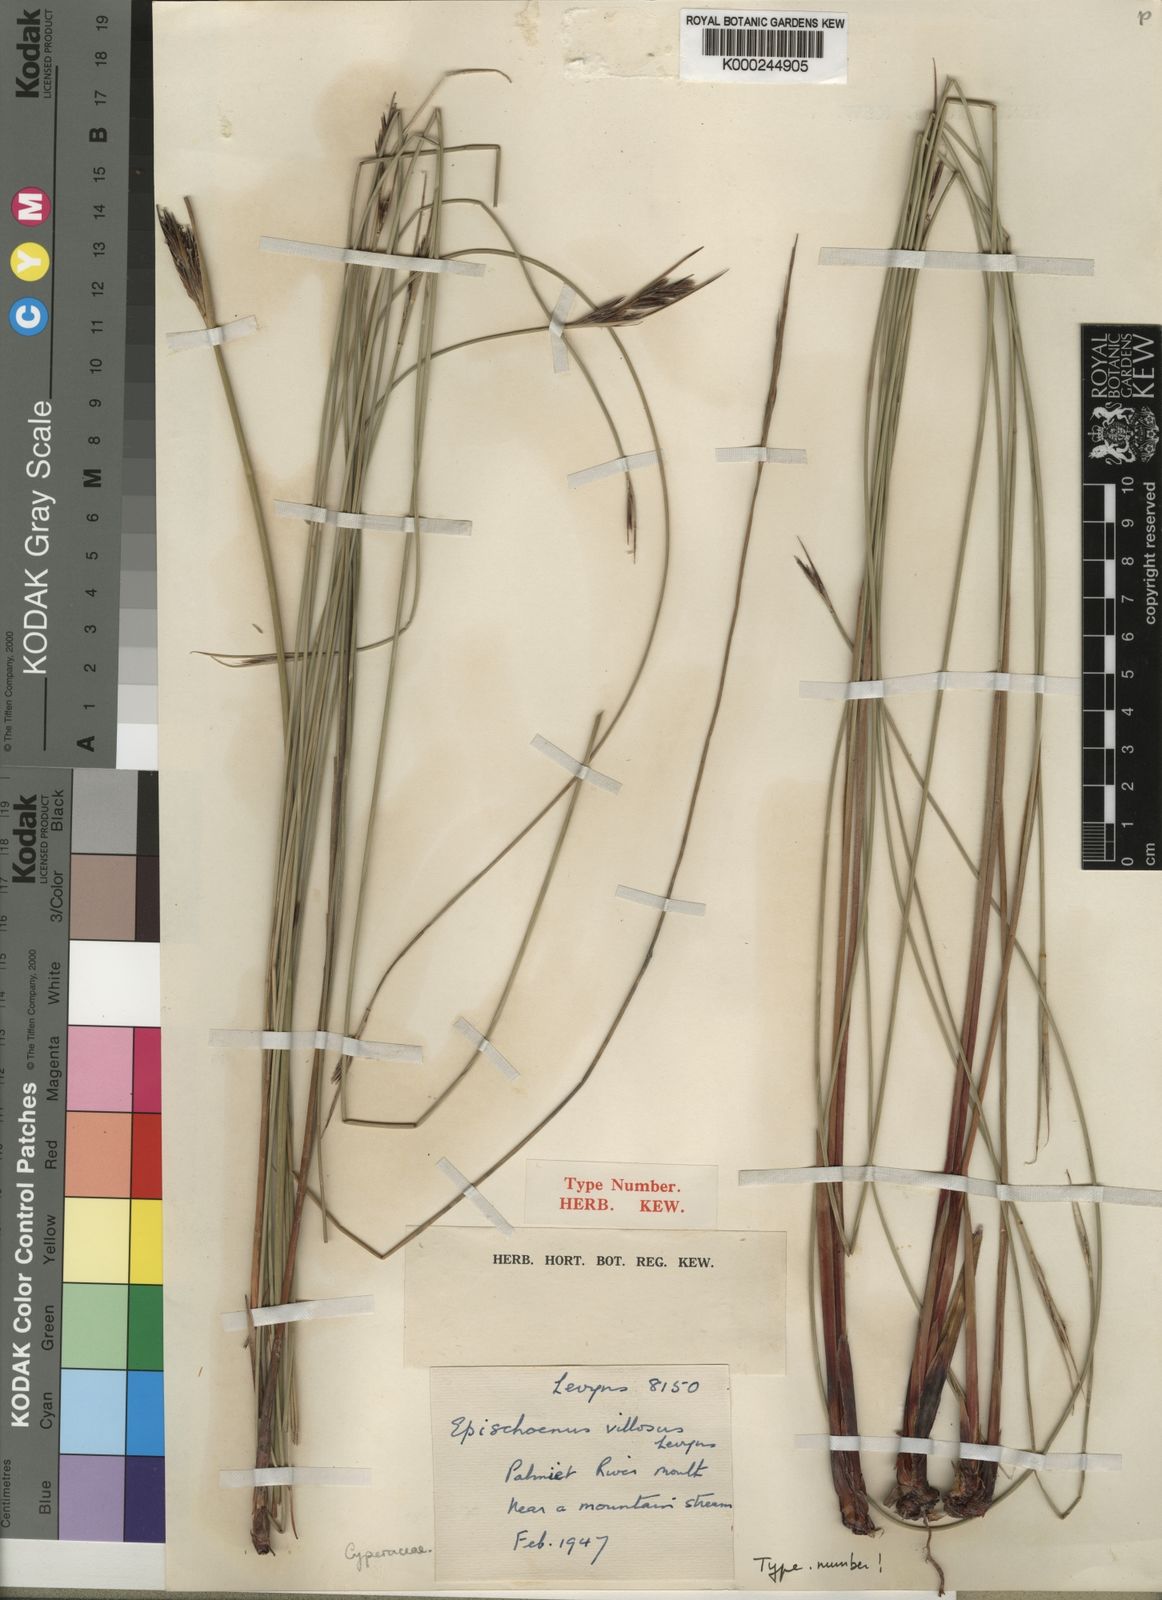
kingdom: Plantae
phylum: Tracheophyta
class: Liliopsida
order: Poales
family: Cyperaceae
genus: Schoenus
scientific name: Schoenus neovillosus
